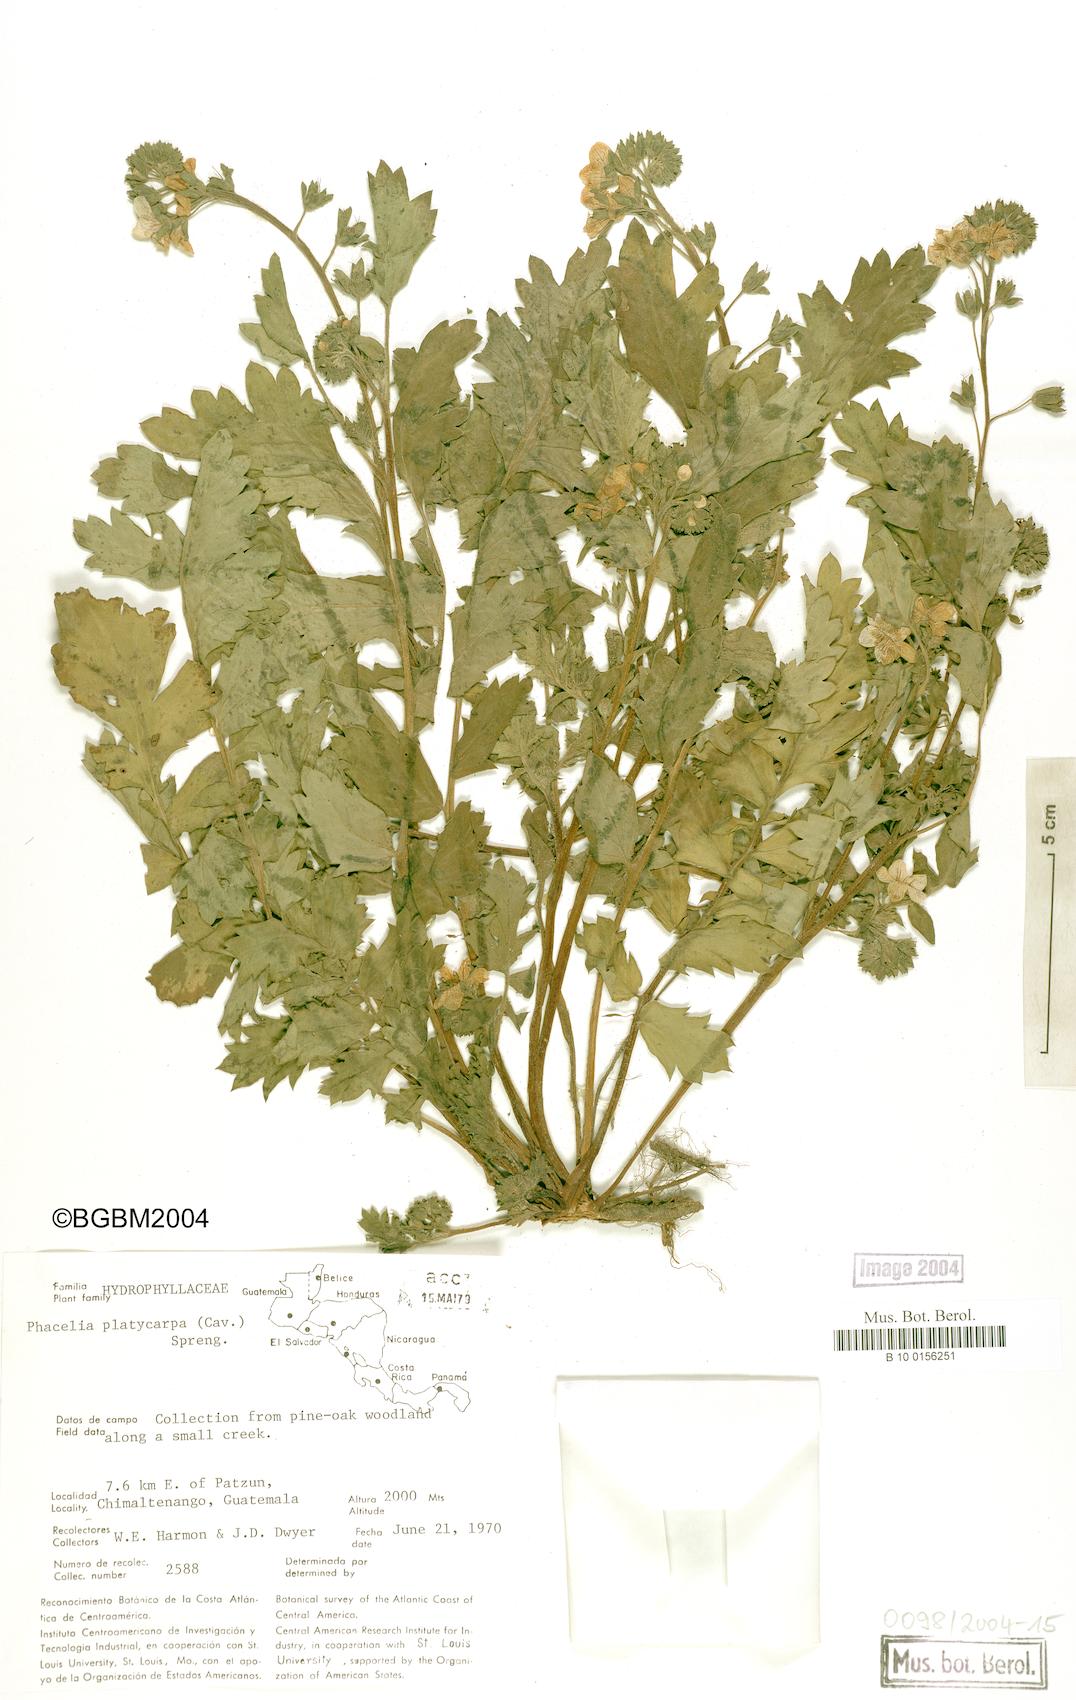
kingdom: Plantae
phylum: Tracheophyta
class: Magnoliopsida
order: Boraginales
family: Hydrophyllaceae
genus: Phacelia
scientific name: Phacelia platycarpa
